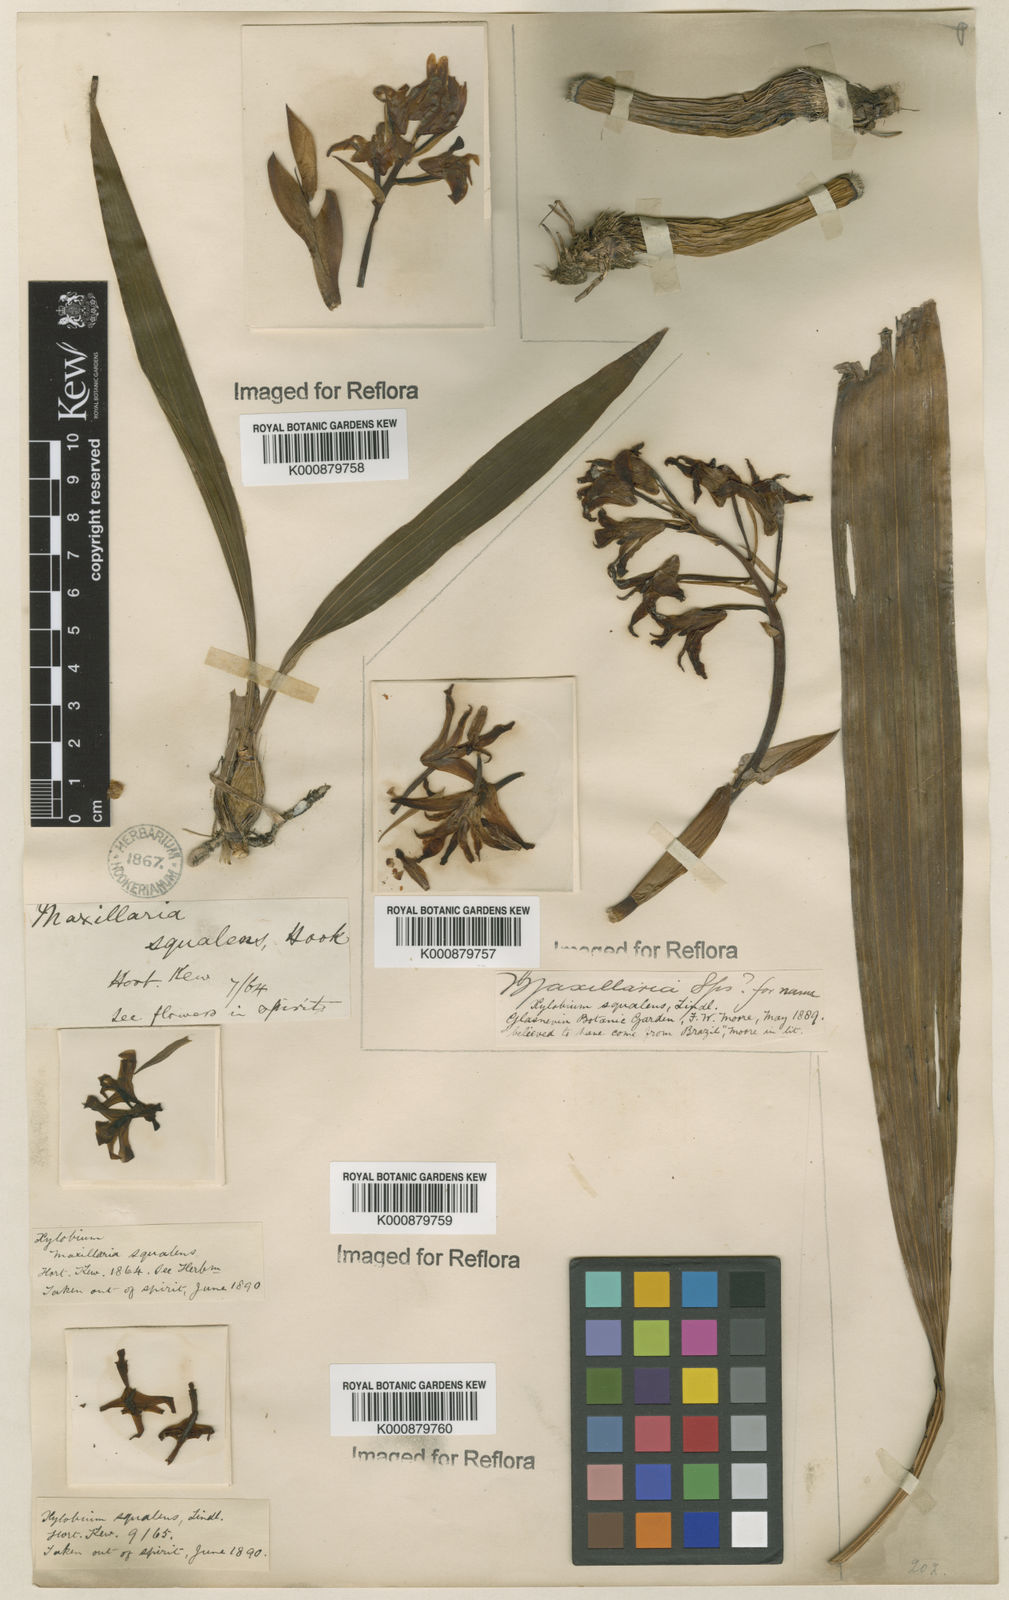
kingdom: Plantae
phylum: Tracheophyta
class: Liliopsida
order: Asparagales
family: Orchidaceae
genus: Xylobium
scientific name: Xylobium
